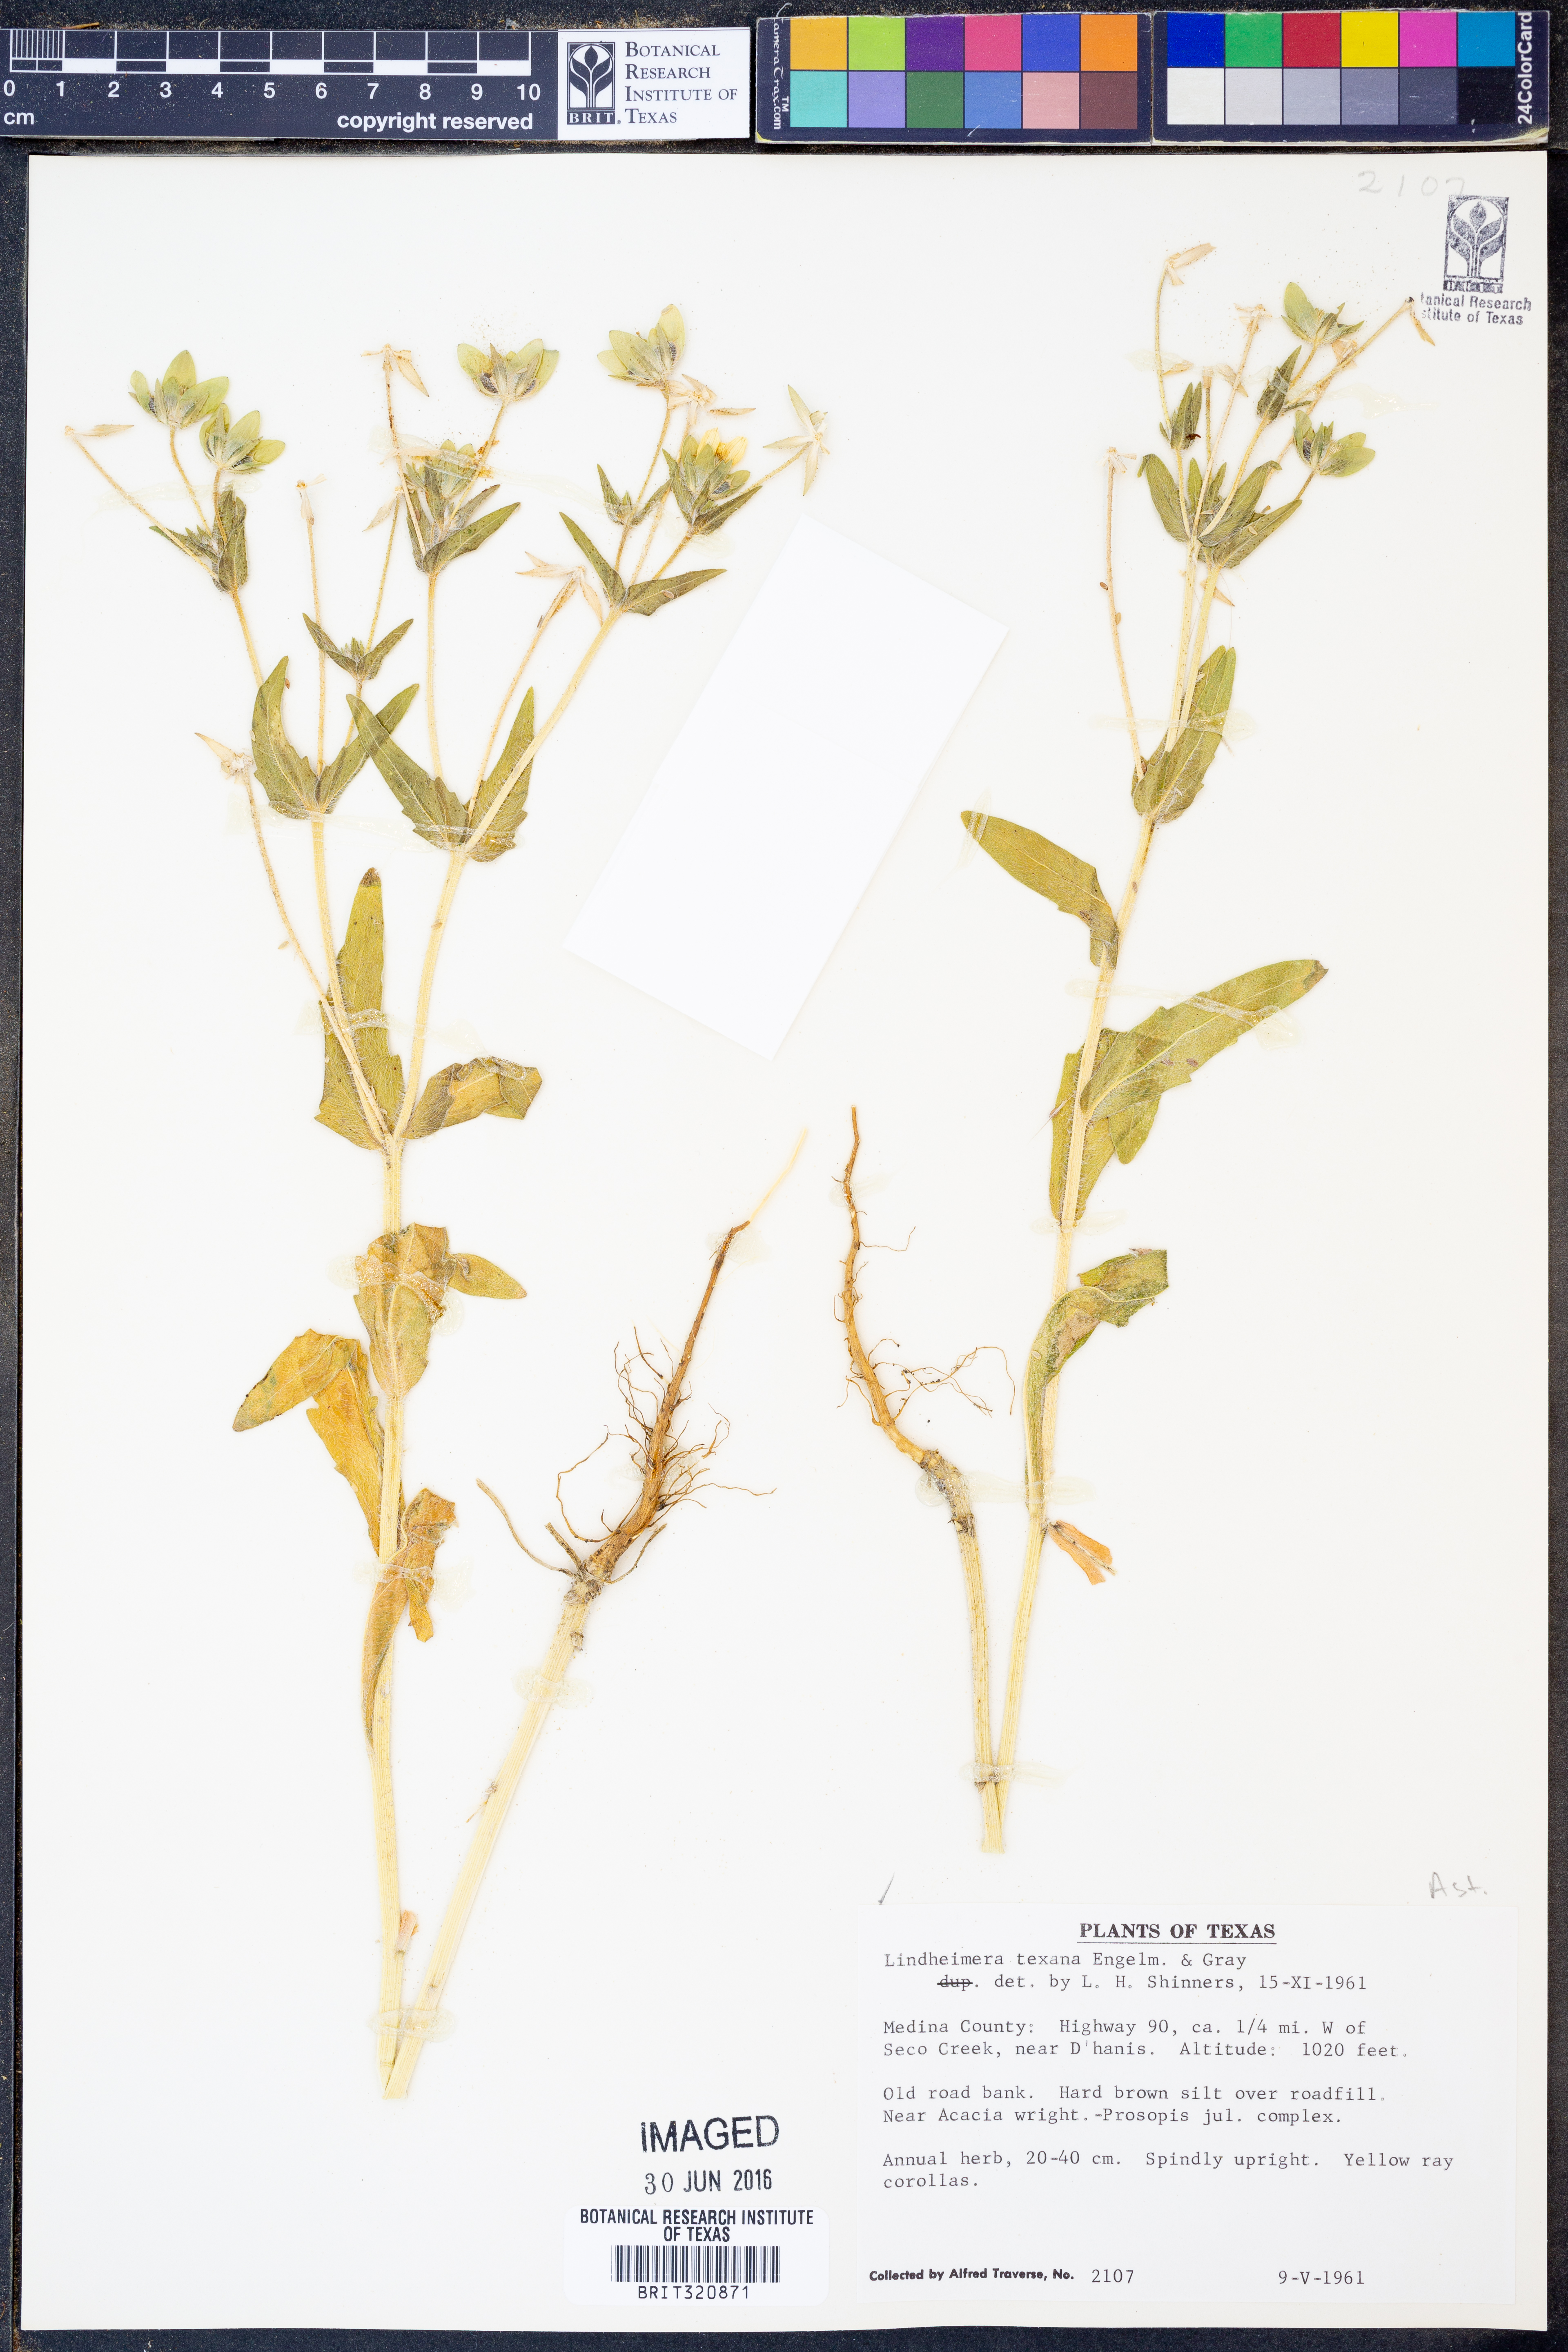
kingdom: Plantae
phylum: Tracheophyta
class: Magnoliopsida
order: Asterales
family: Asteraceae
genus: Lindheimera
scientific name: Lindheimera texana
